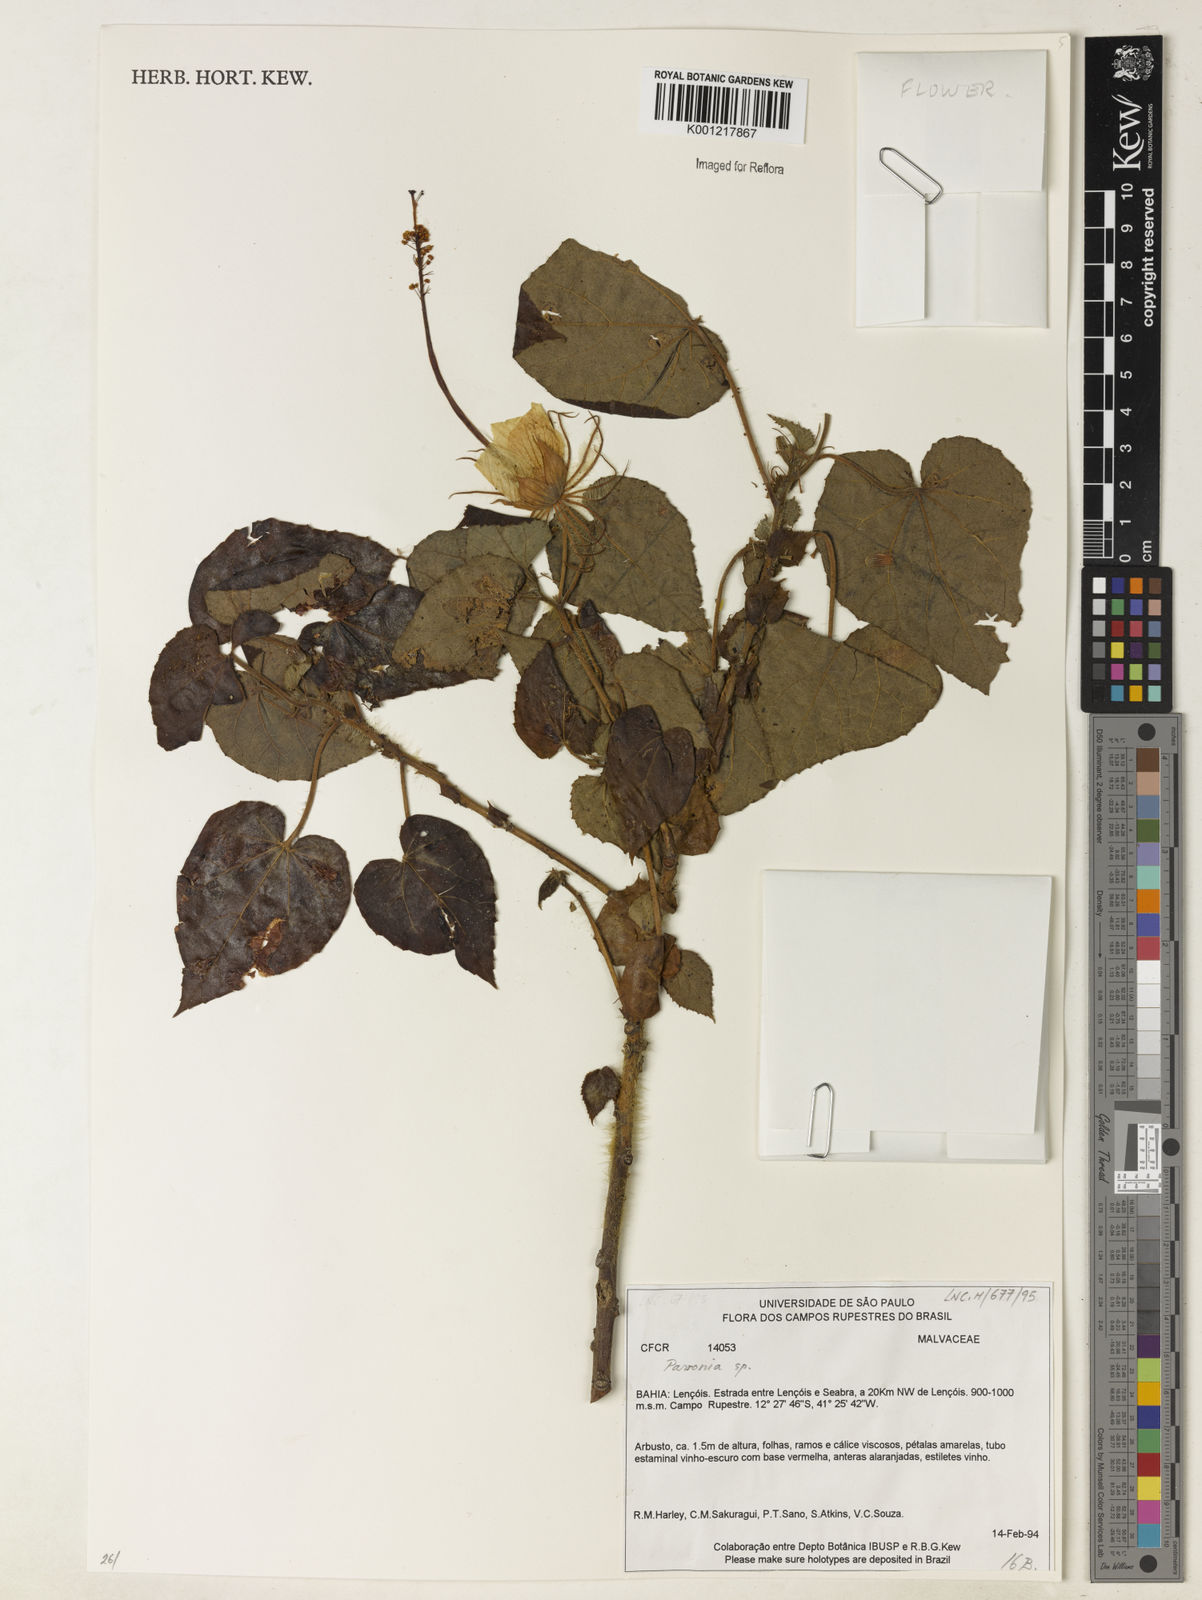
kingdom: Plantae
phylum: Tracheophyta
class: Magnoliopsida
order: Malvales
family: Malvaceae
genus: Pavonia
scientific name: Pavonia
